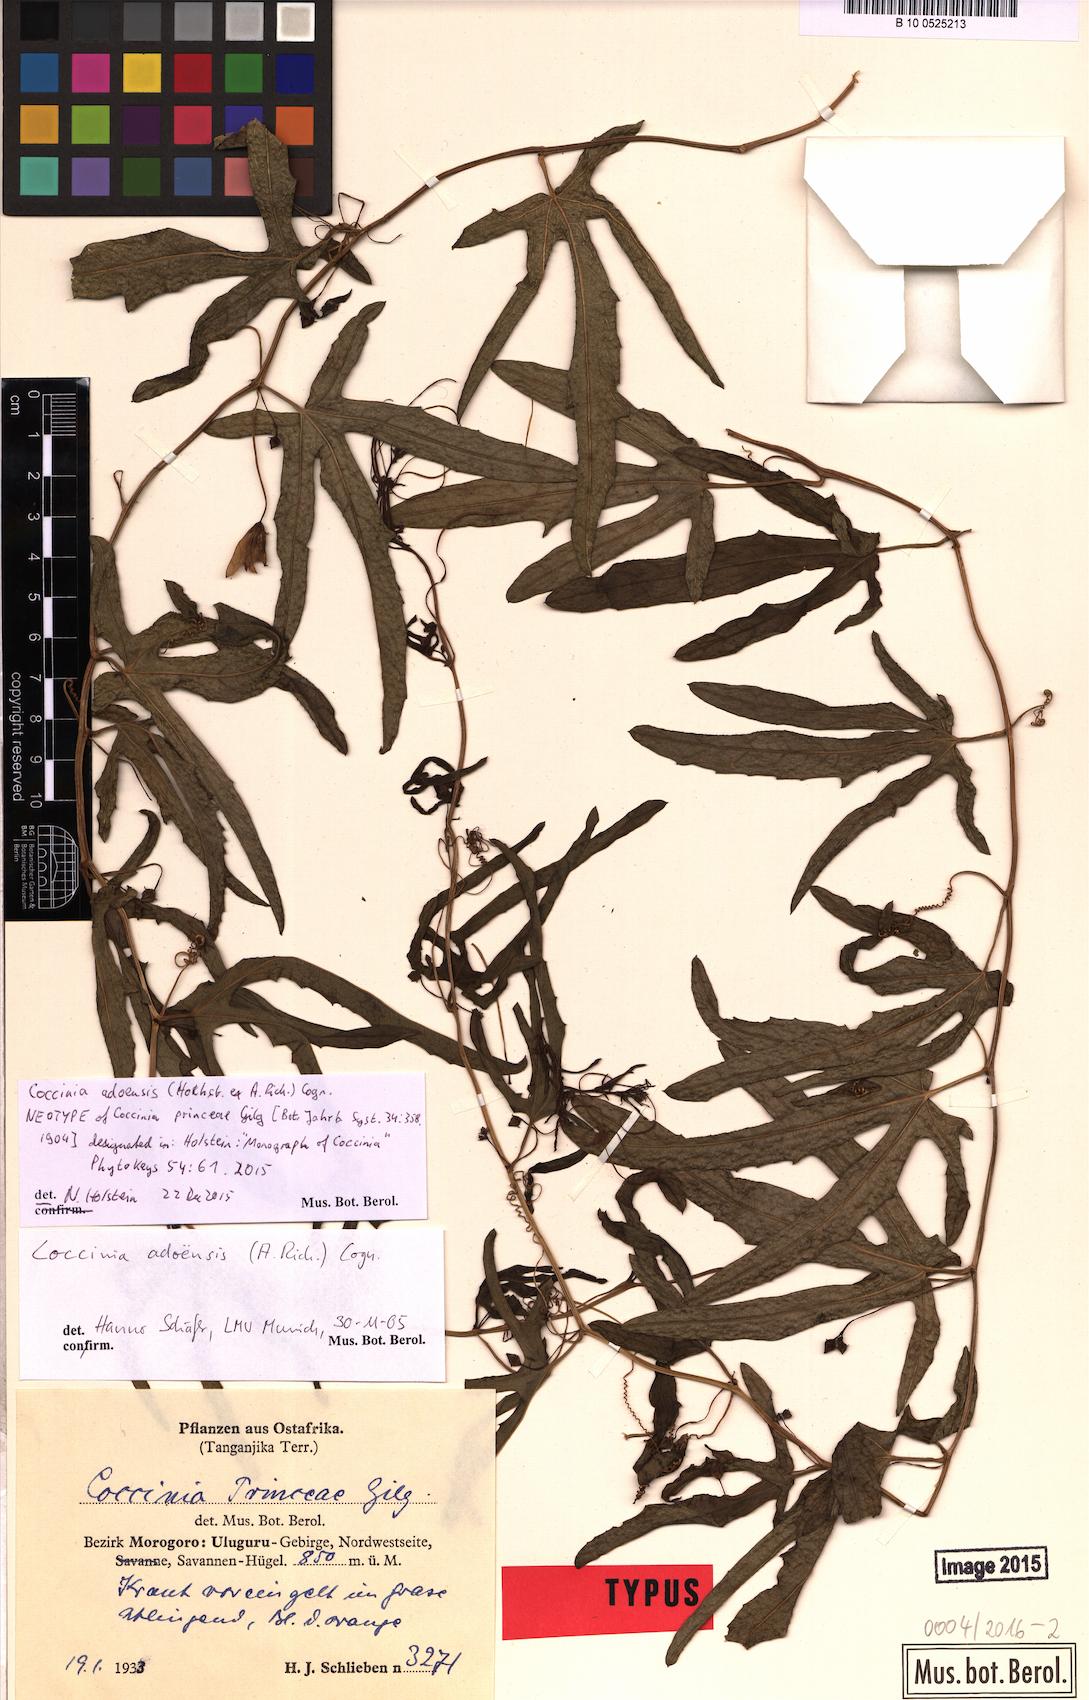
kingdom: Plantae
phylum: Tracheophyta
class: Magnoliopsida
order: Cucurbitales
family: Cucurbitaceae
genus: Coccinia
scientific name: Coccinia adoensis
